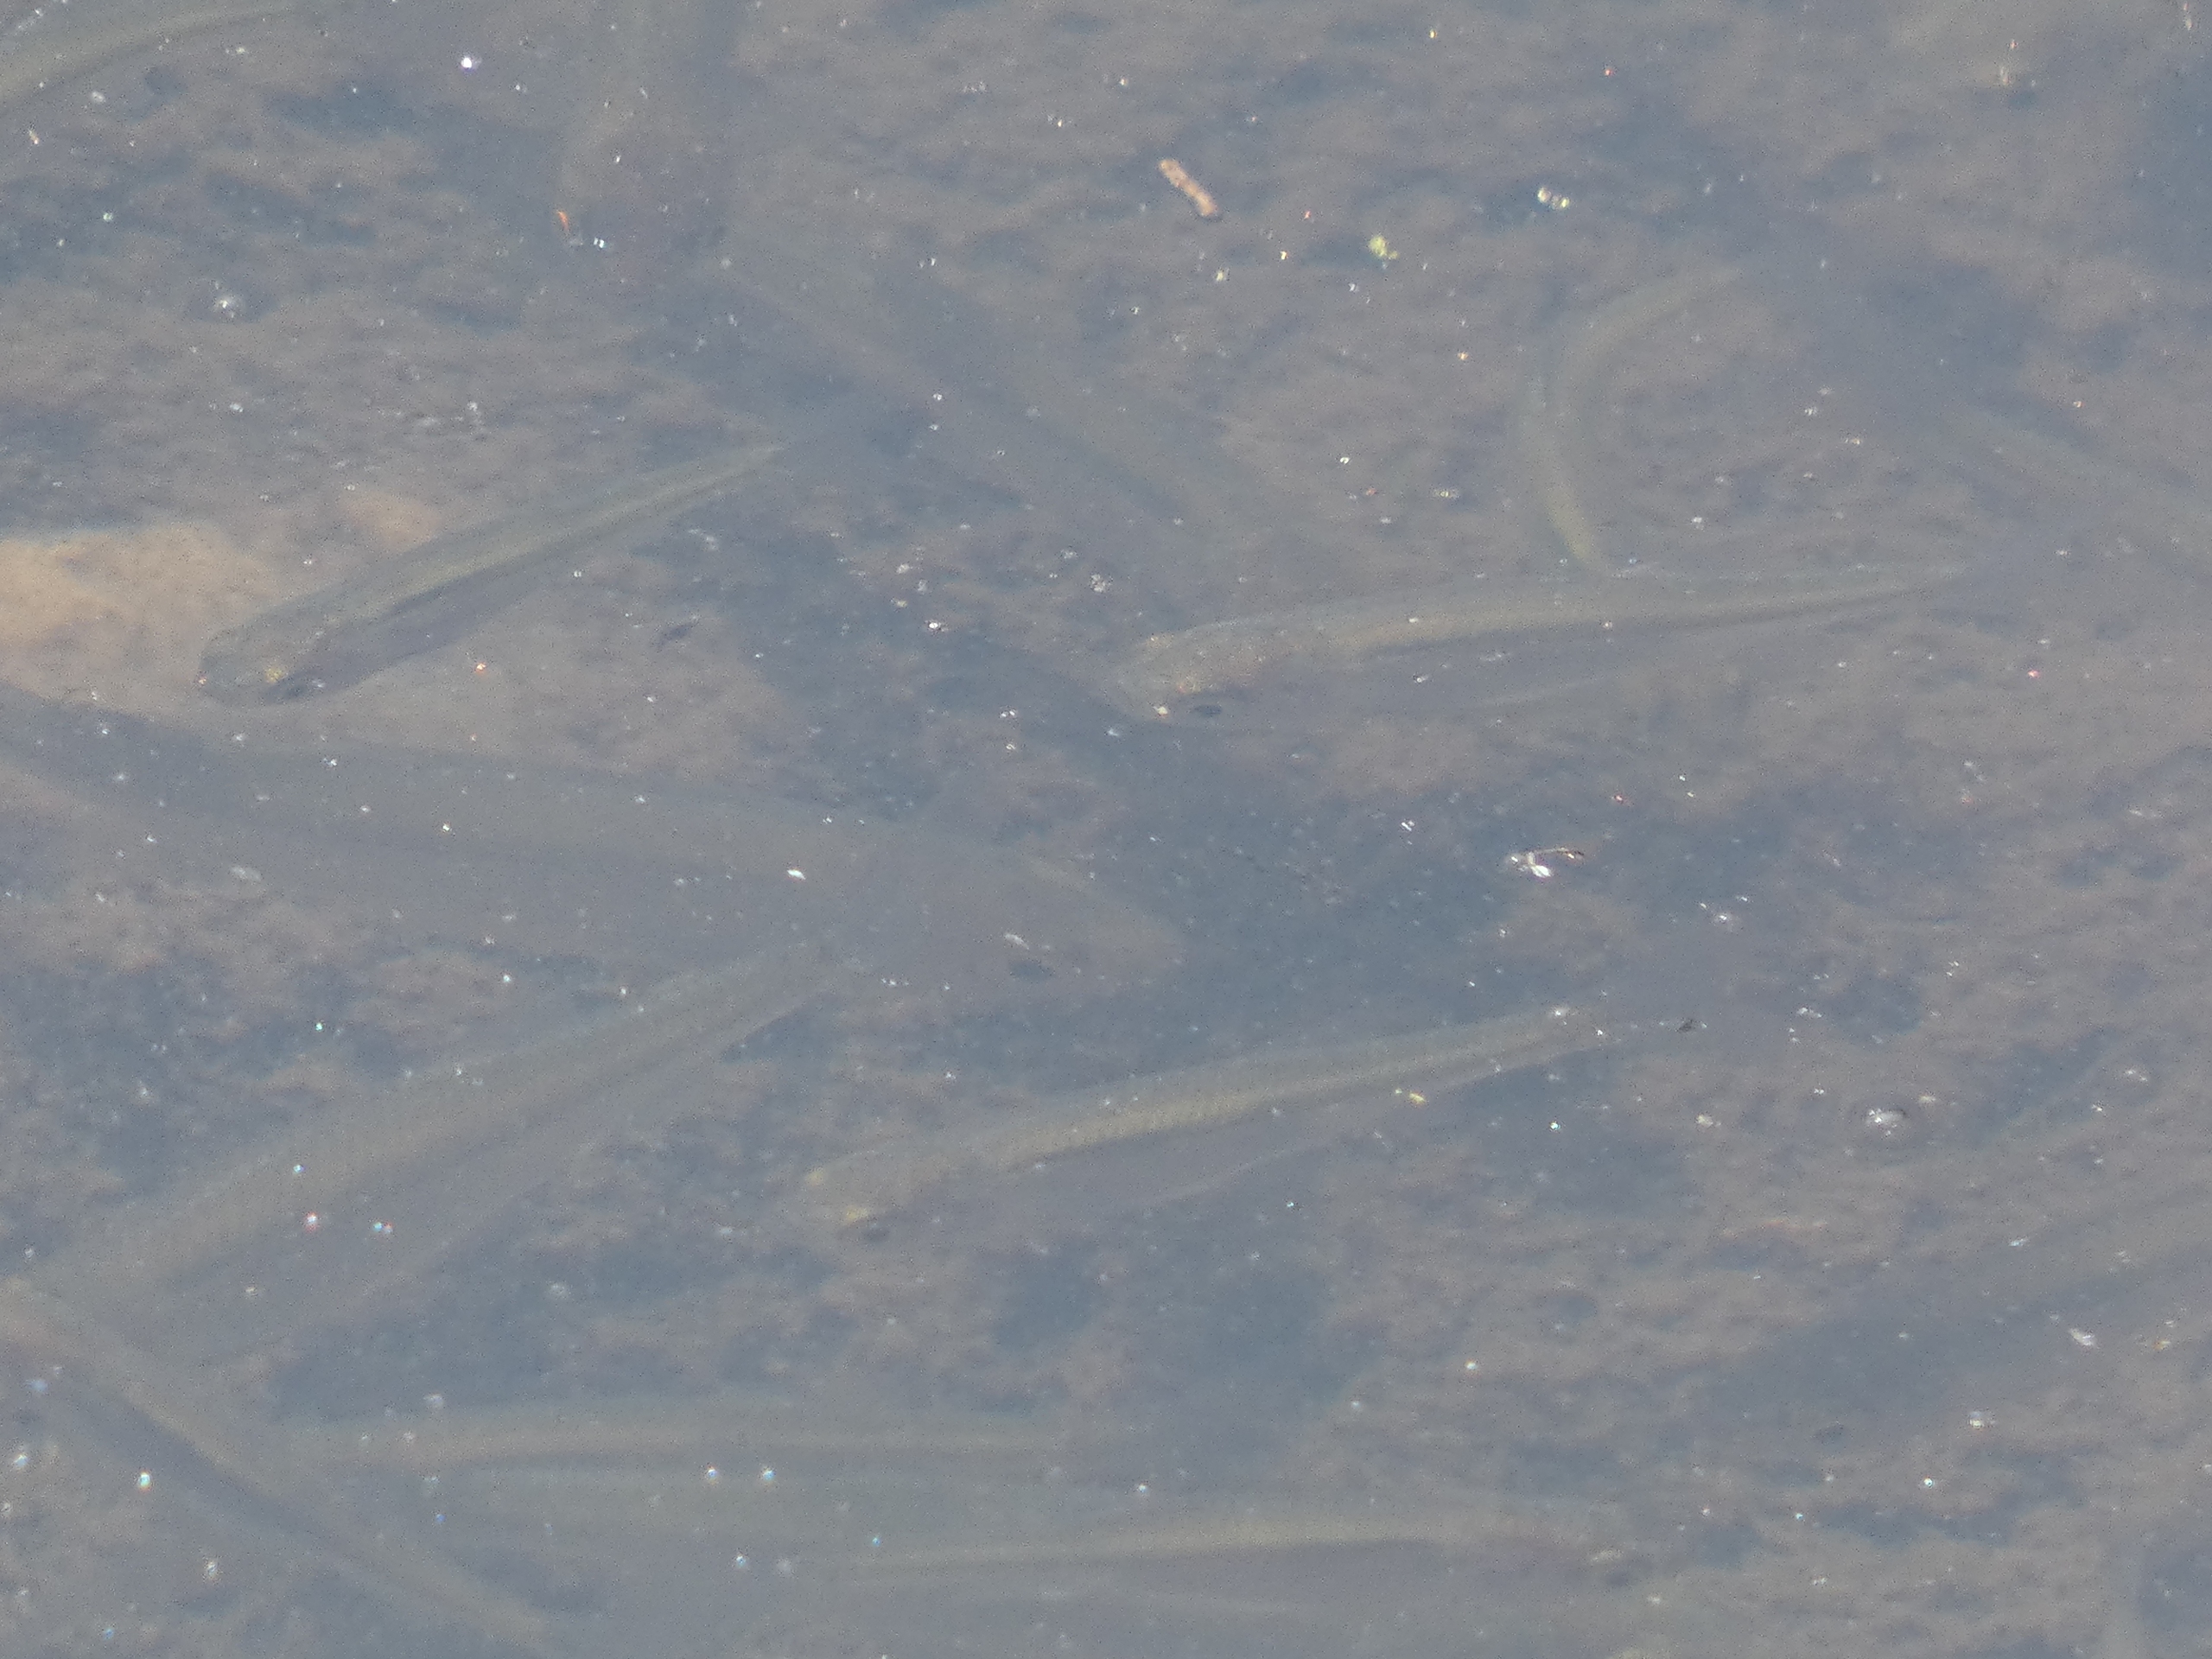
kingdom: Animalia
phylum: Chordata
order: Cypriniformes
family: Cyprinidae
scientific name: Cyprinidae
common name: Karpefamilien
